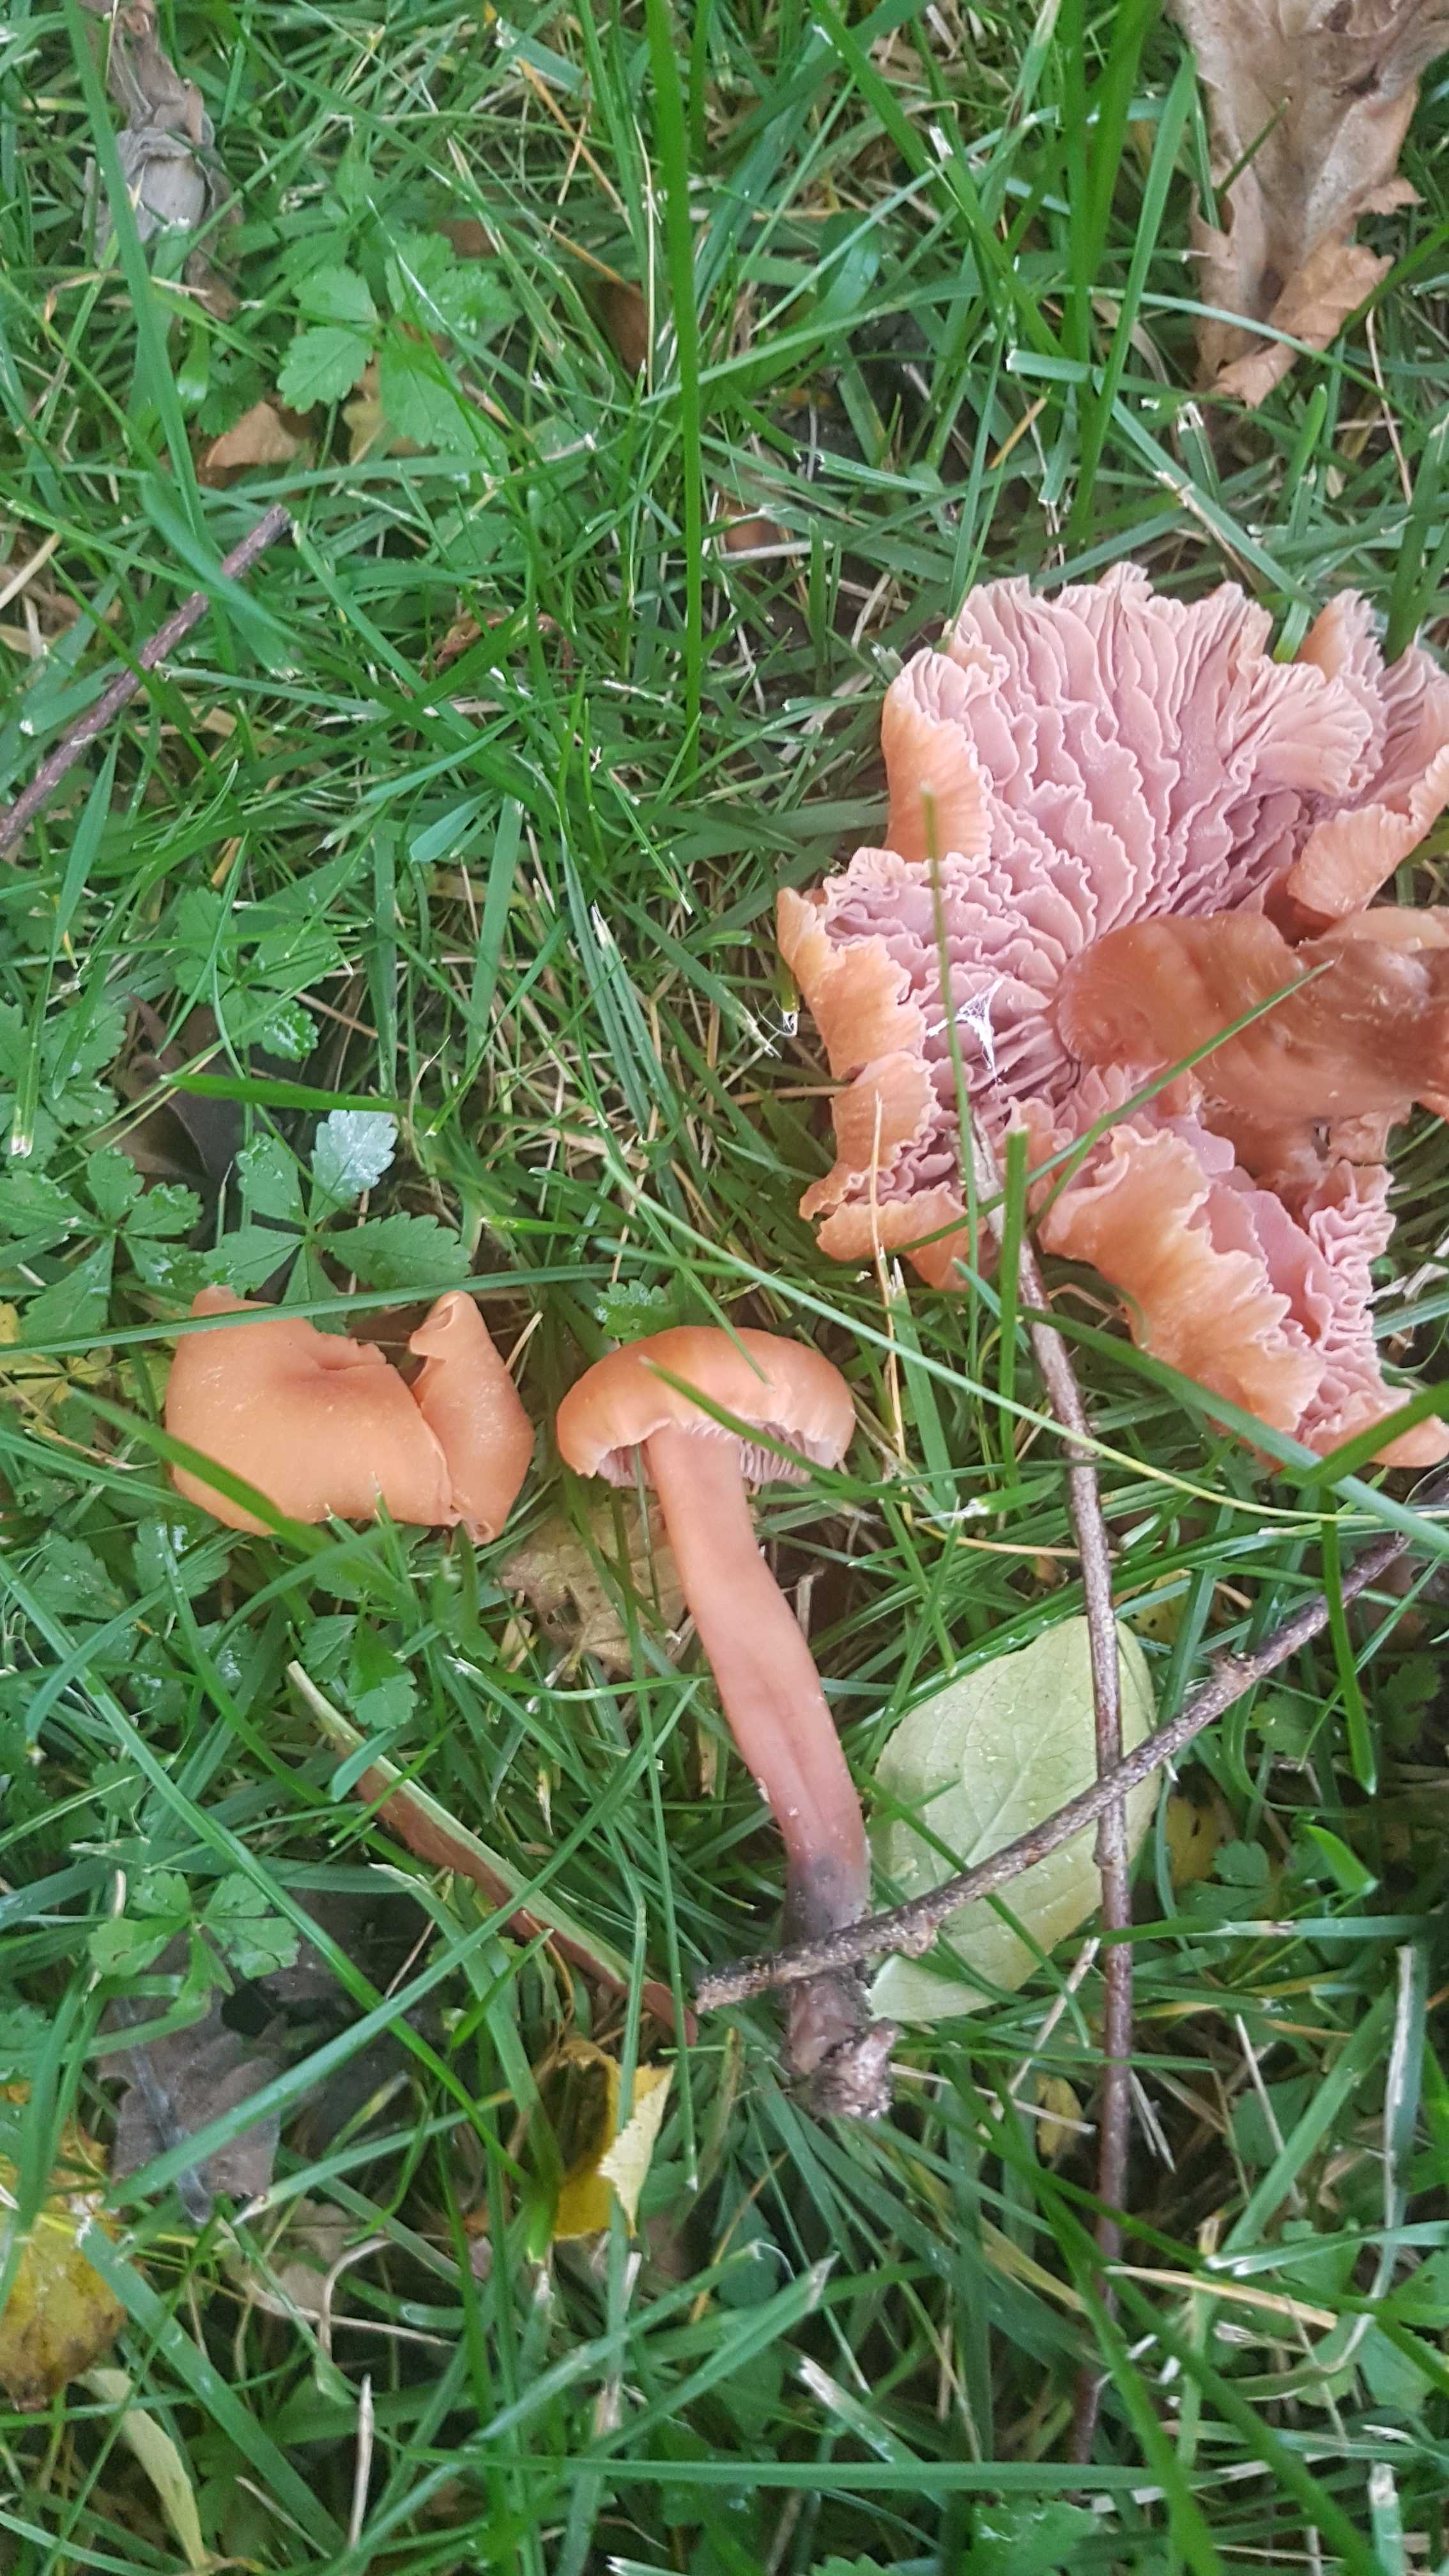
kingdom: Fungi
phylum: Basidiomycota
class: Agaricomycetes
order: Agaricales
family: Hydnangiaceae
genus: Laccaria
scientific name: Laccaria laccata
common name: rød ametysthat
